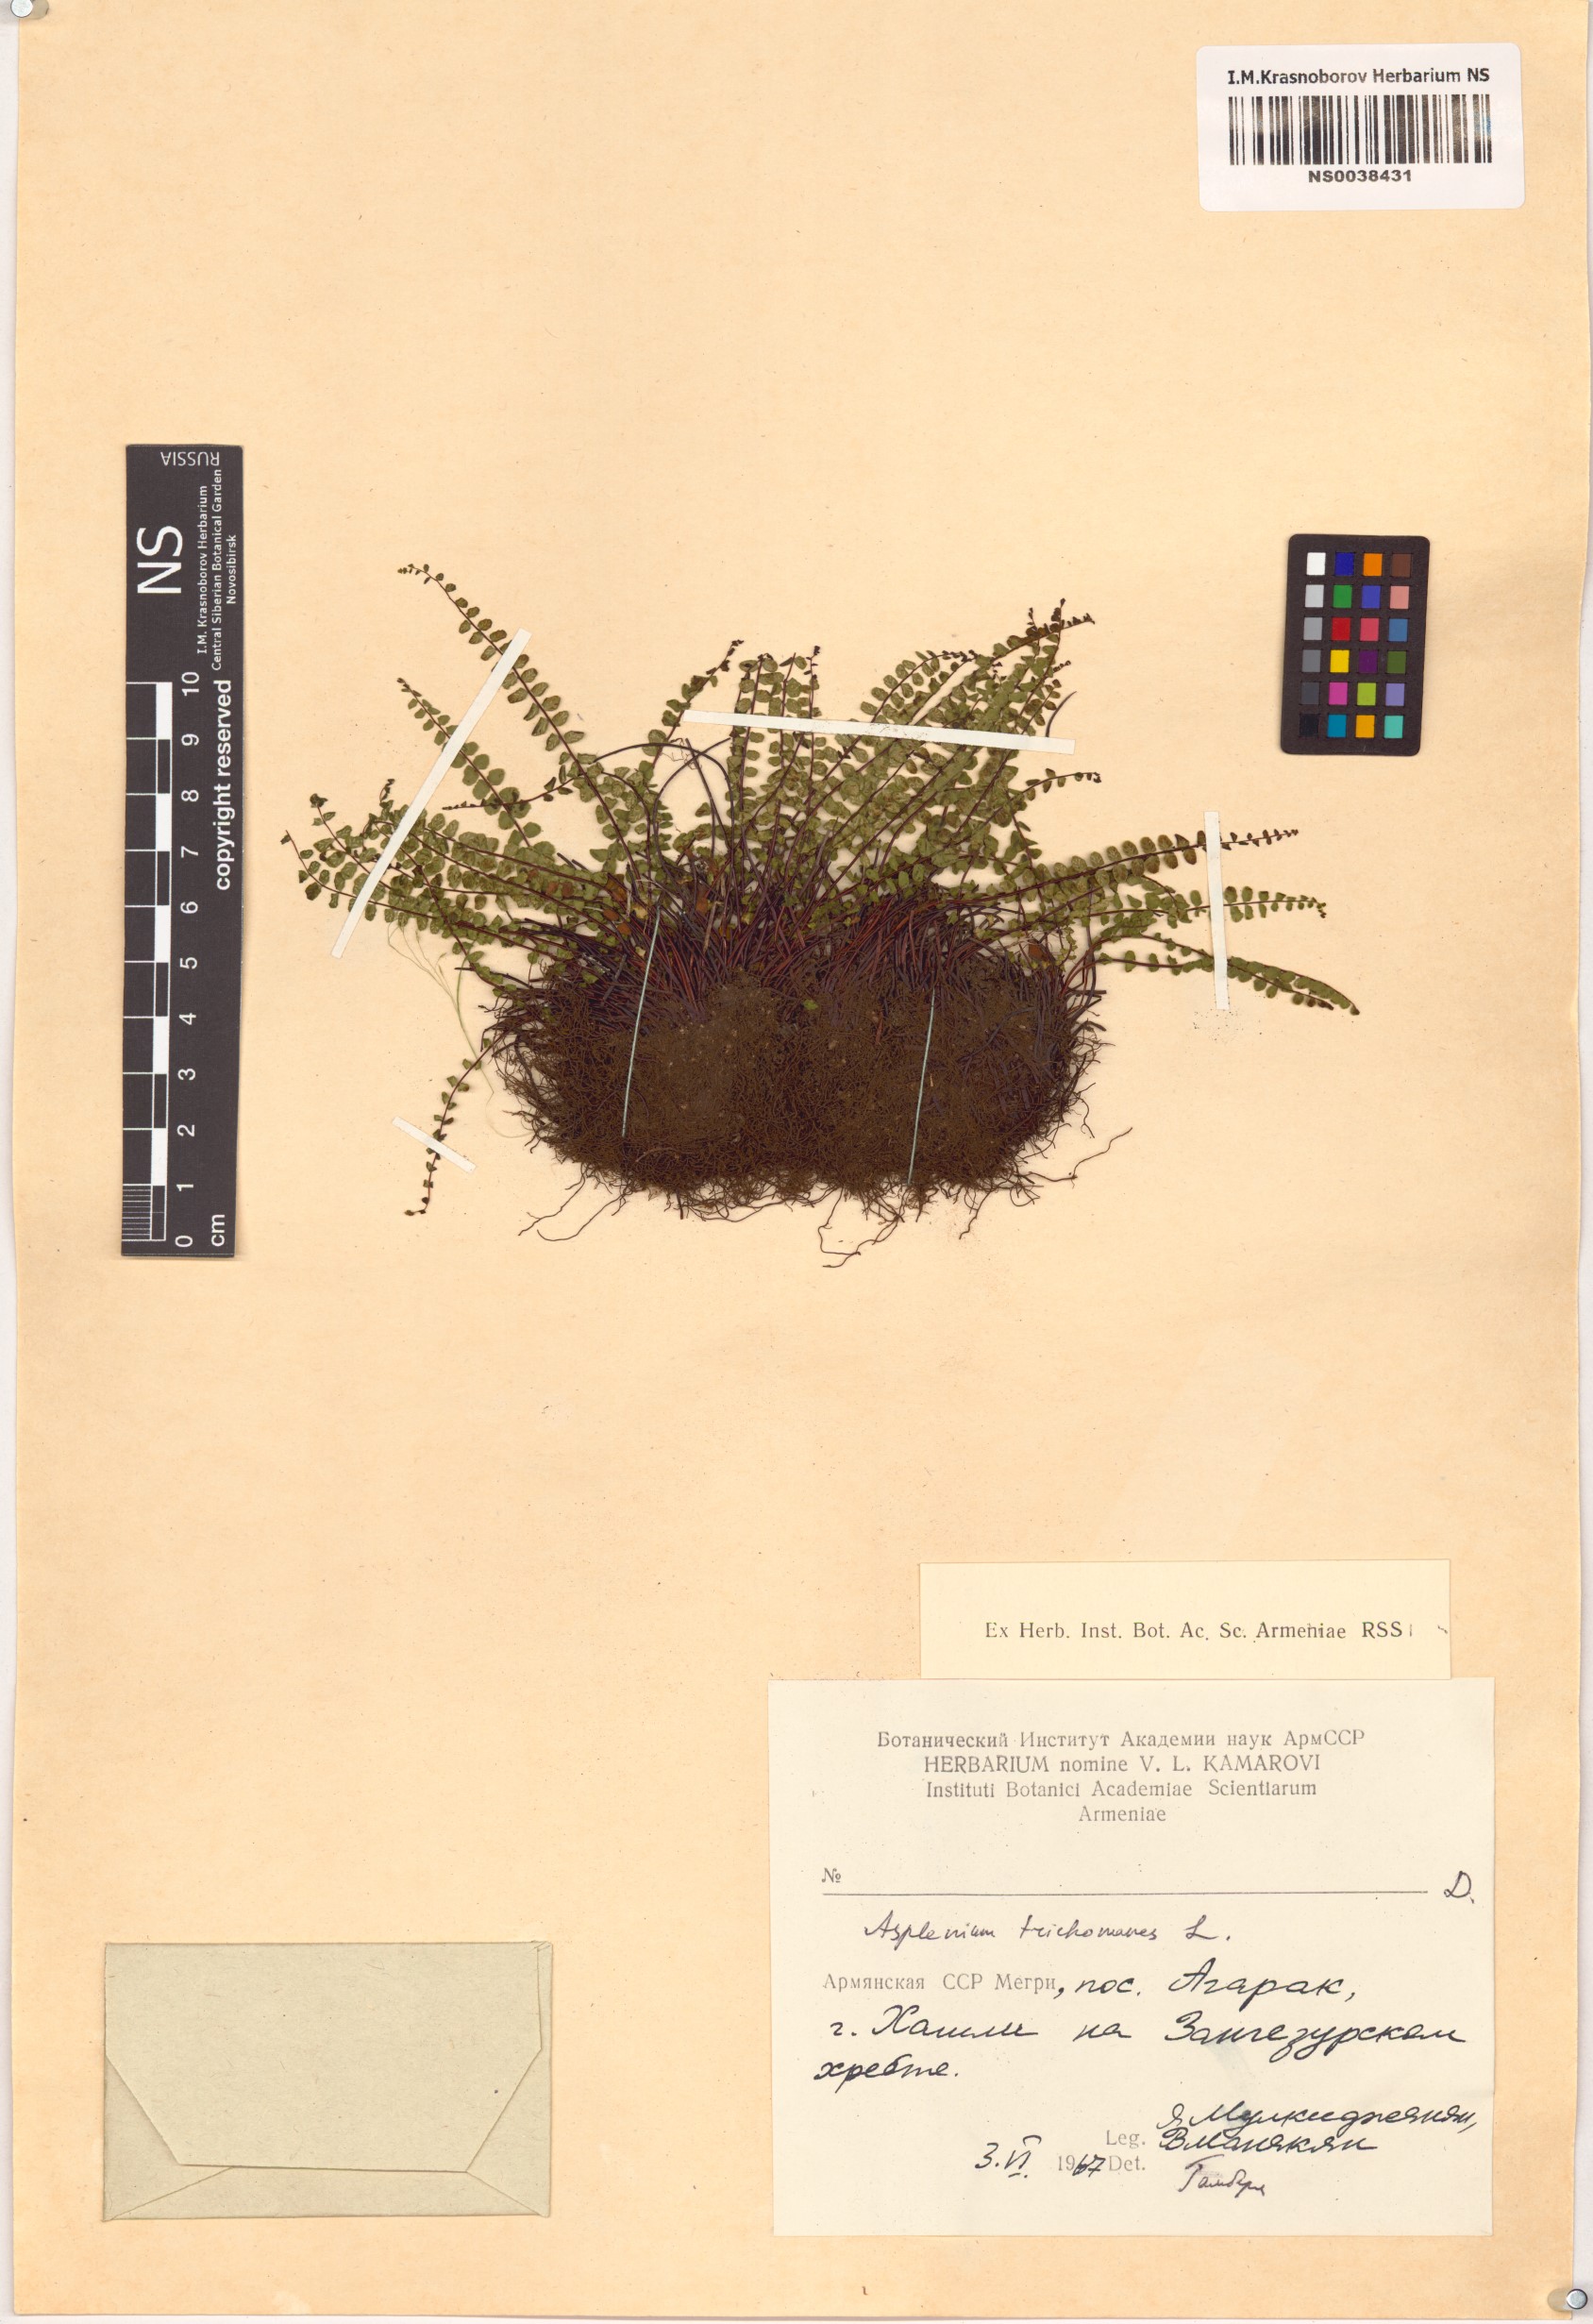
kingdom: Plantae
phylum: Tracheophyta
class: Polypodiopsida
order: Polypodiales
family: Aspleniaceae
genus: Asplenium
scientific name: Asplenium trichomanes
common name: Maidenhair spleenwort
